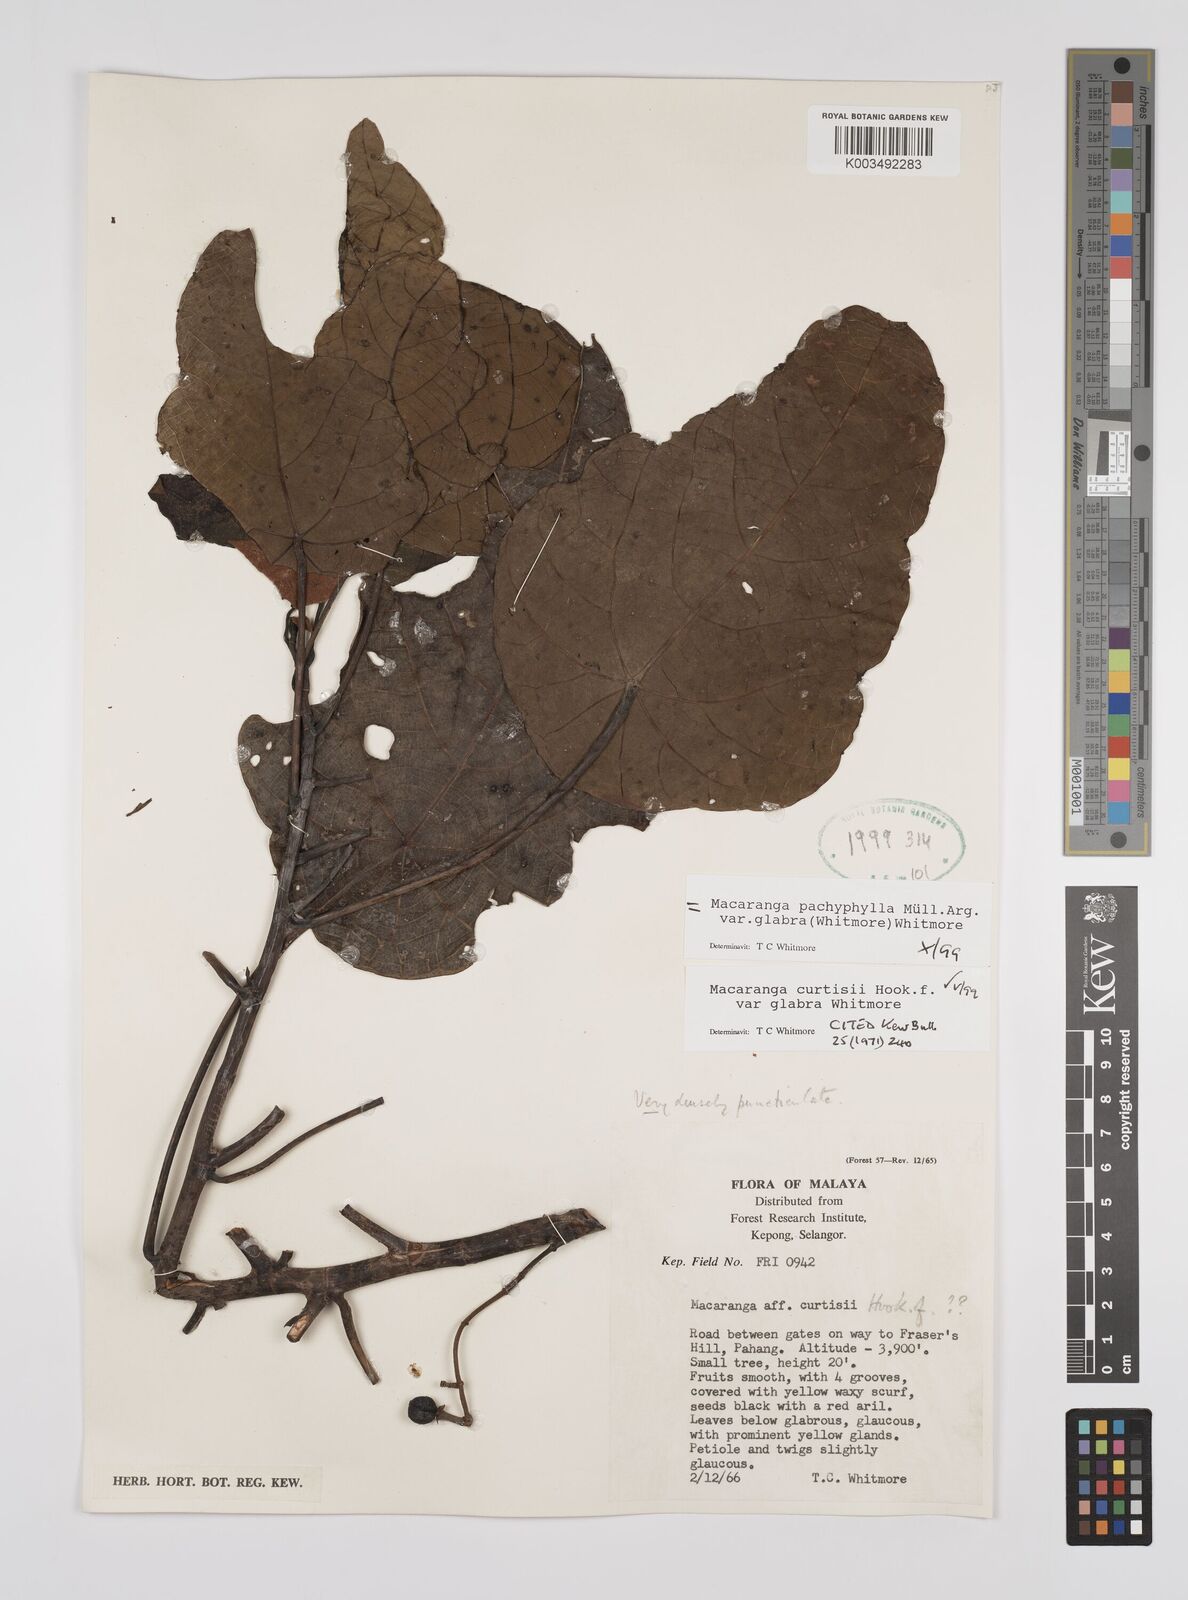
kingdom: Plantae
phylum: Tracheophyta
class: Magnoliopsida
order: Malpighiales
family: Euphorbiaceae
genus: Macaranga
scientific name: Macaranga pachyphylla
